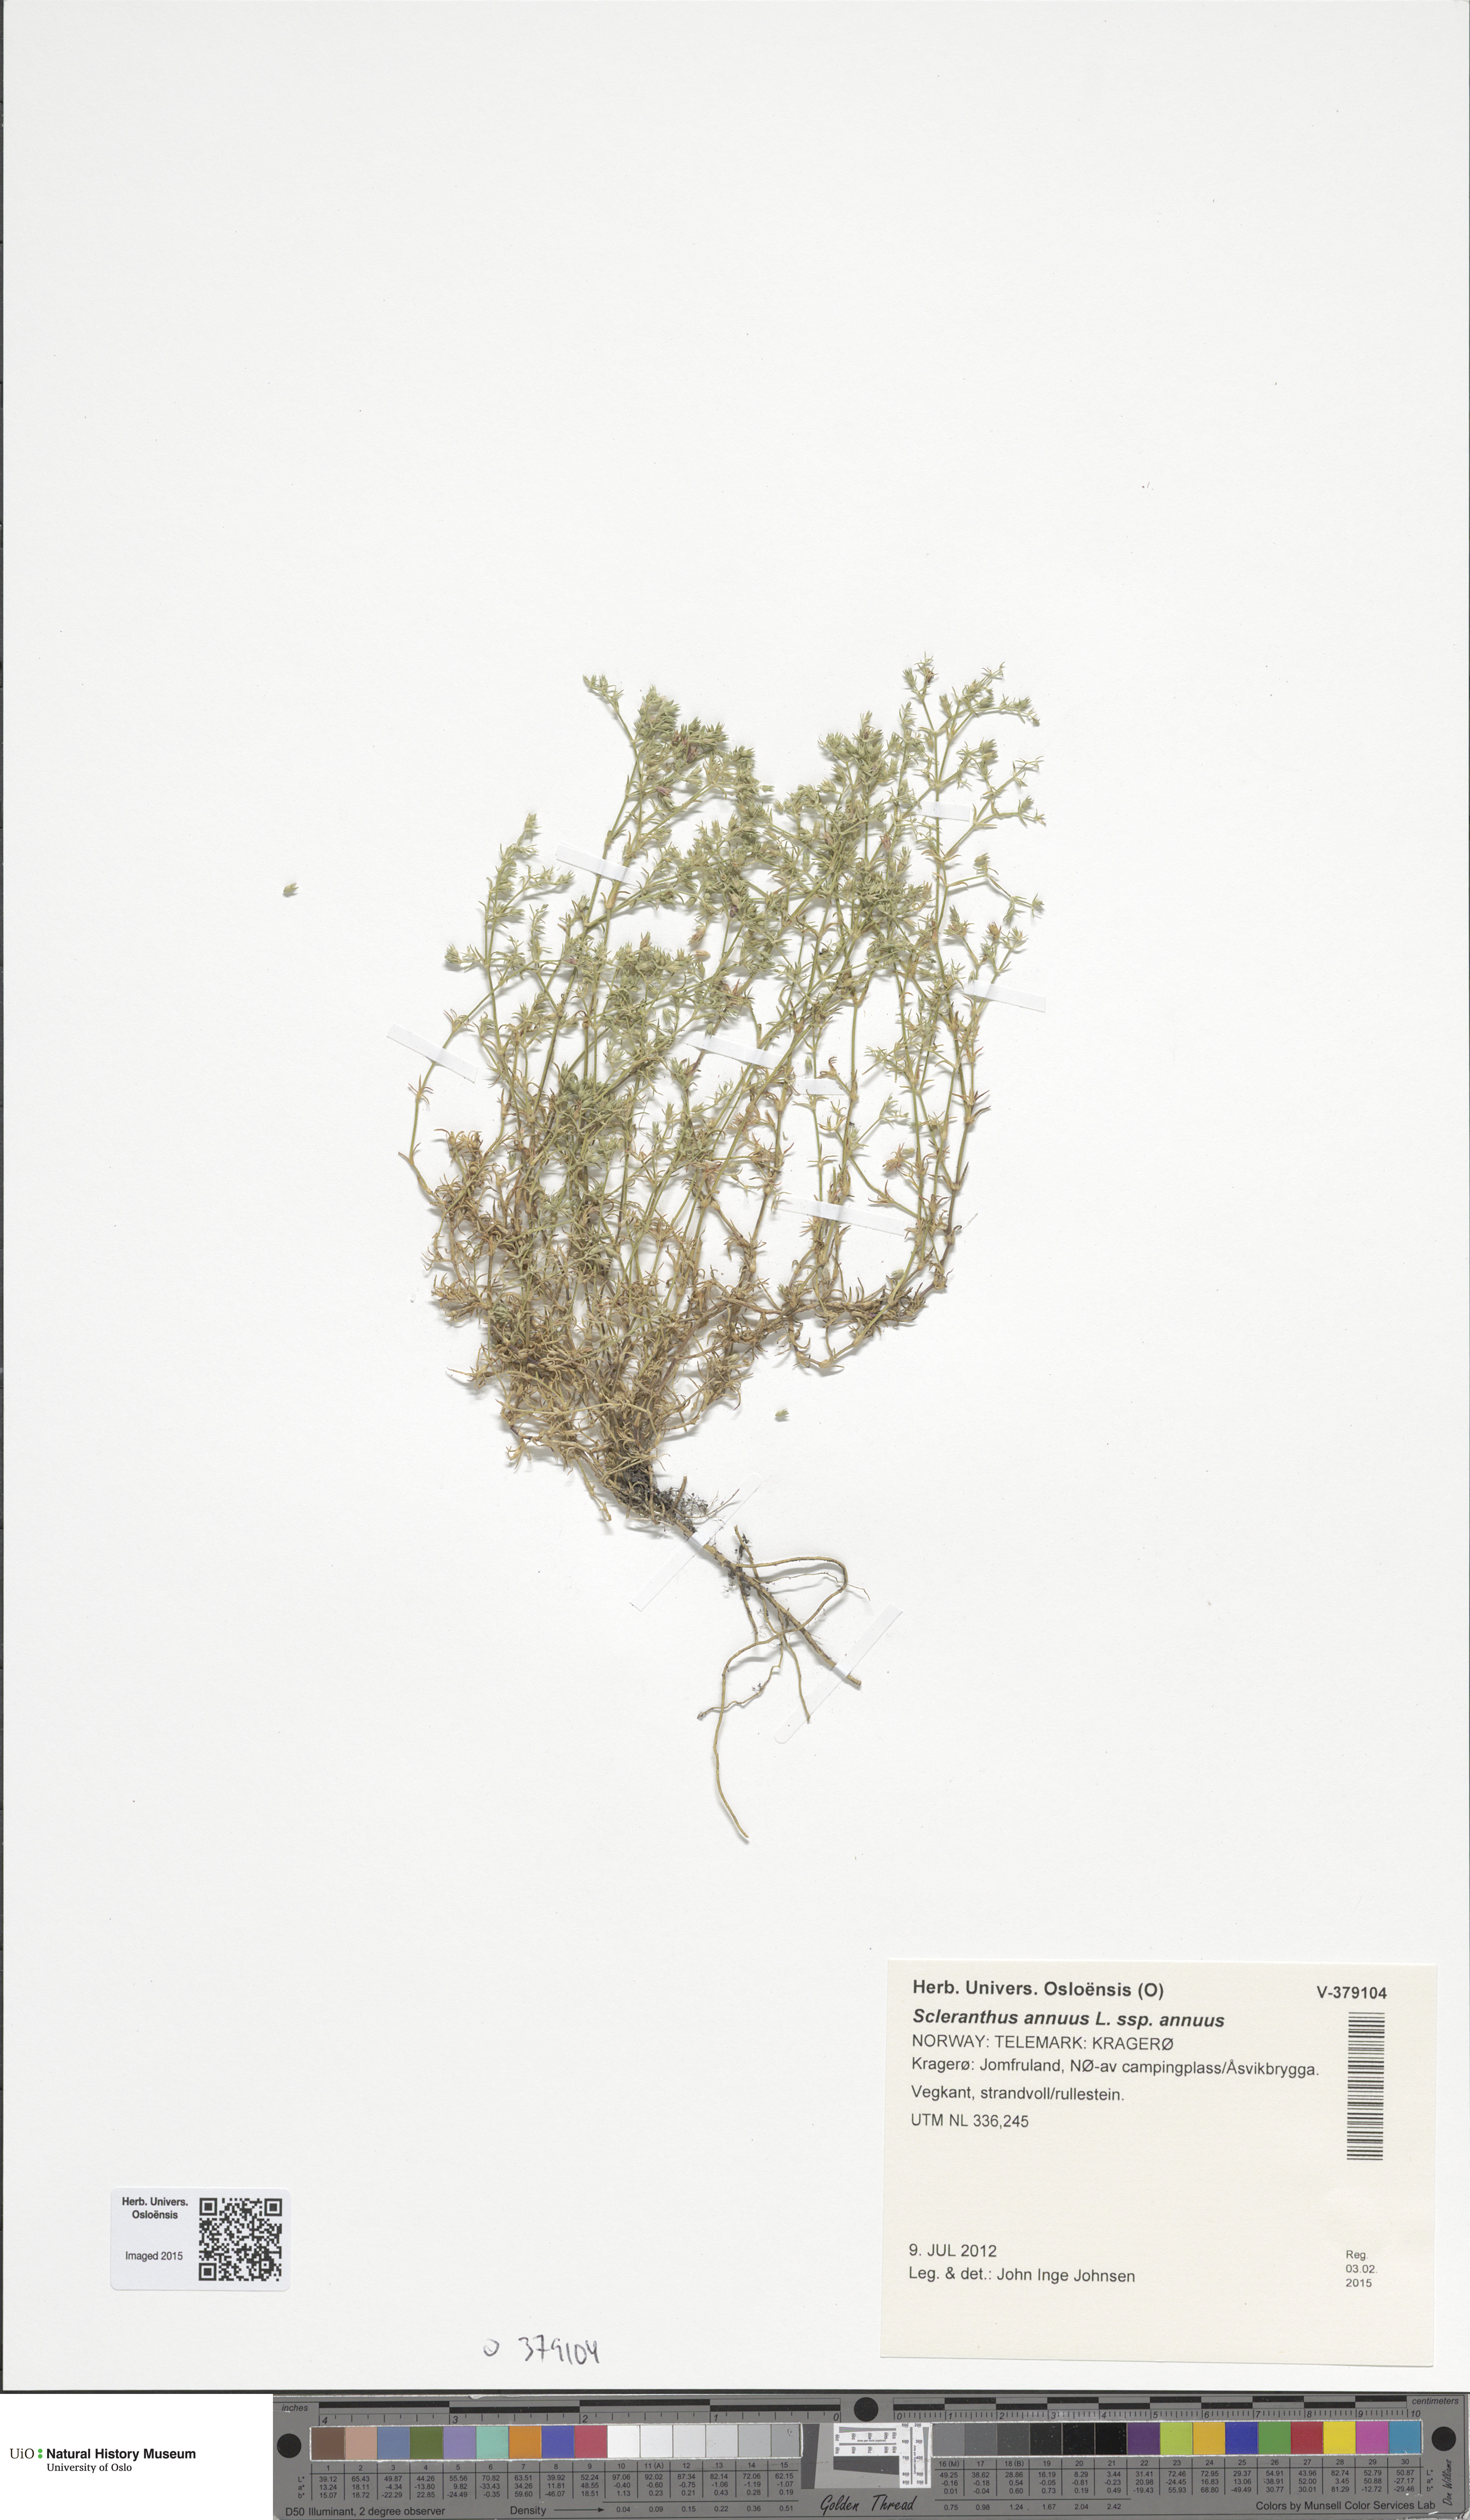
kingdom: Plantae
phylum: Tracheophyta
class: Magnoliopsida
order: Caryophyllales
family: Caryophyllaceae
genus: Scleranthus
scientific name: Scleranthus annuus
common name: Annual knawel
